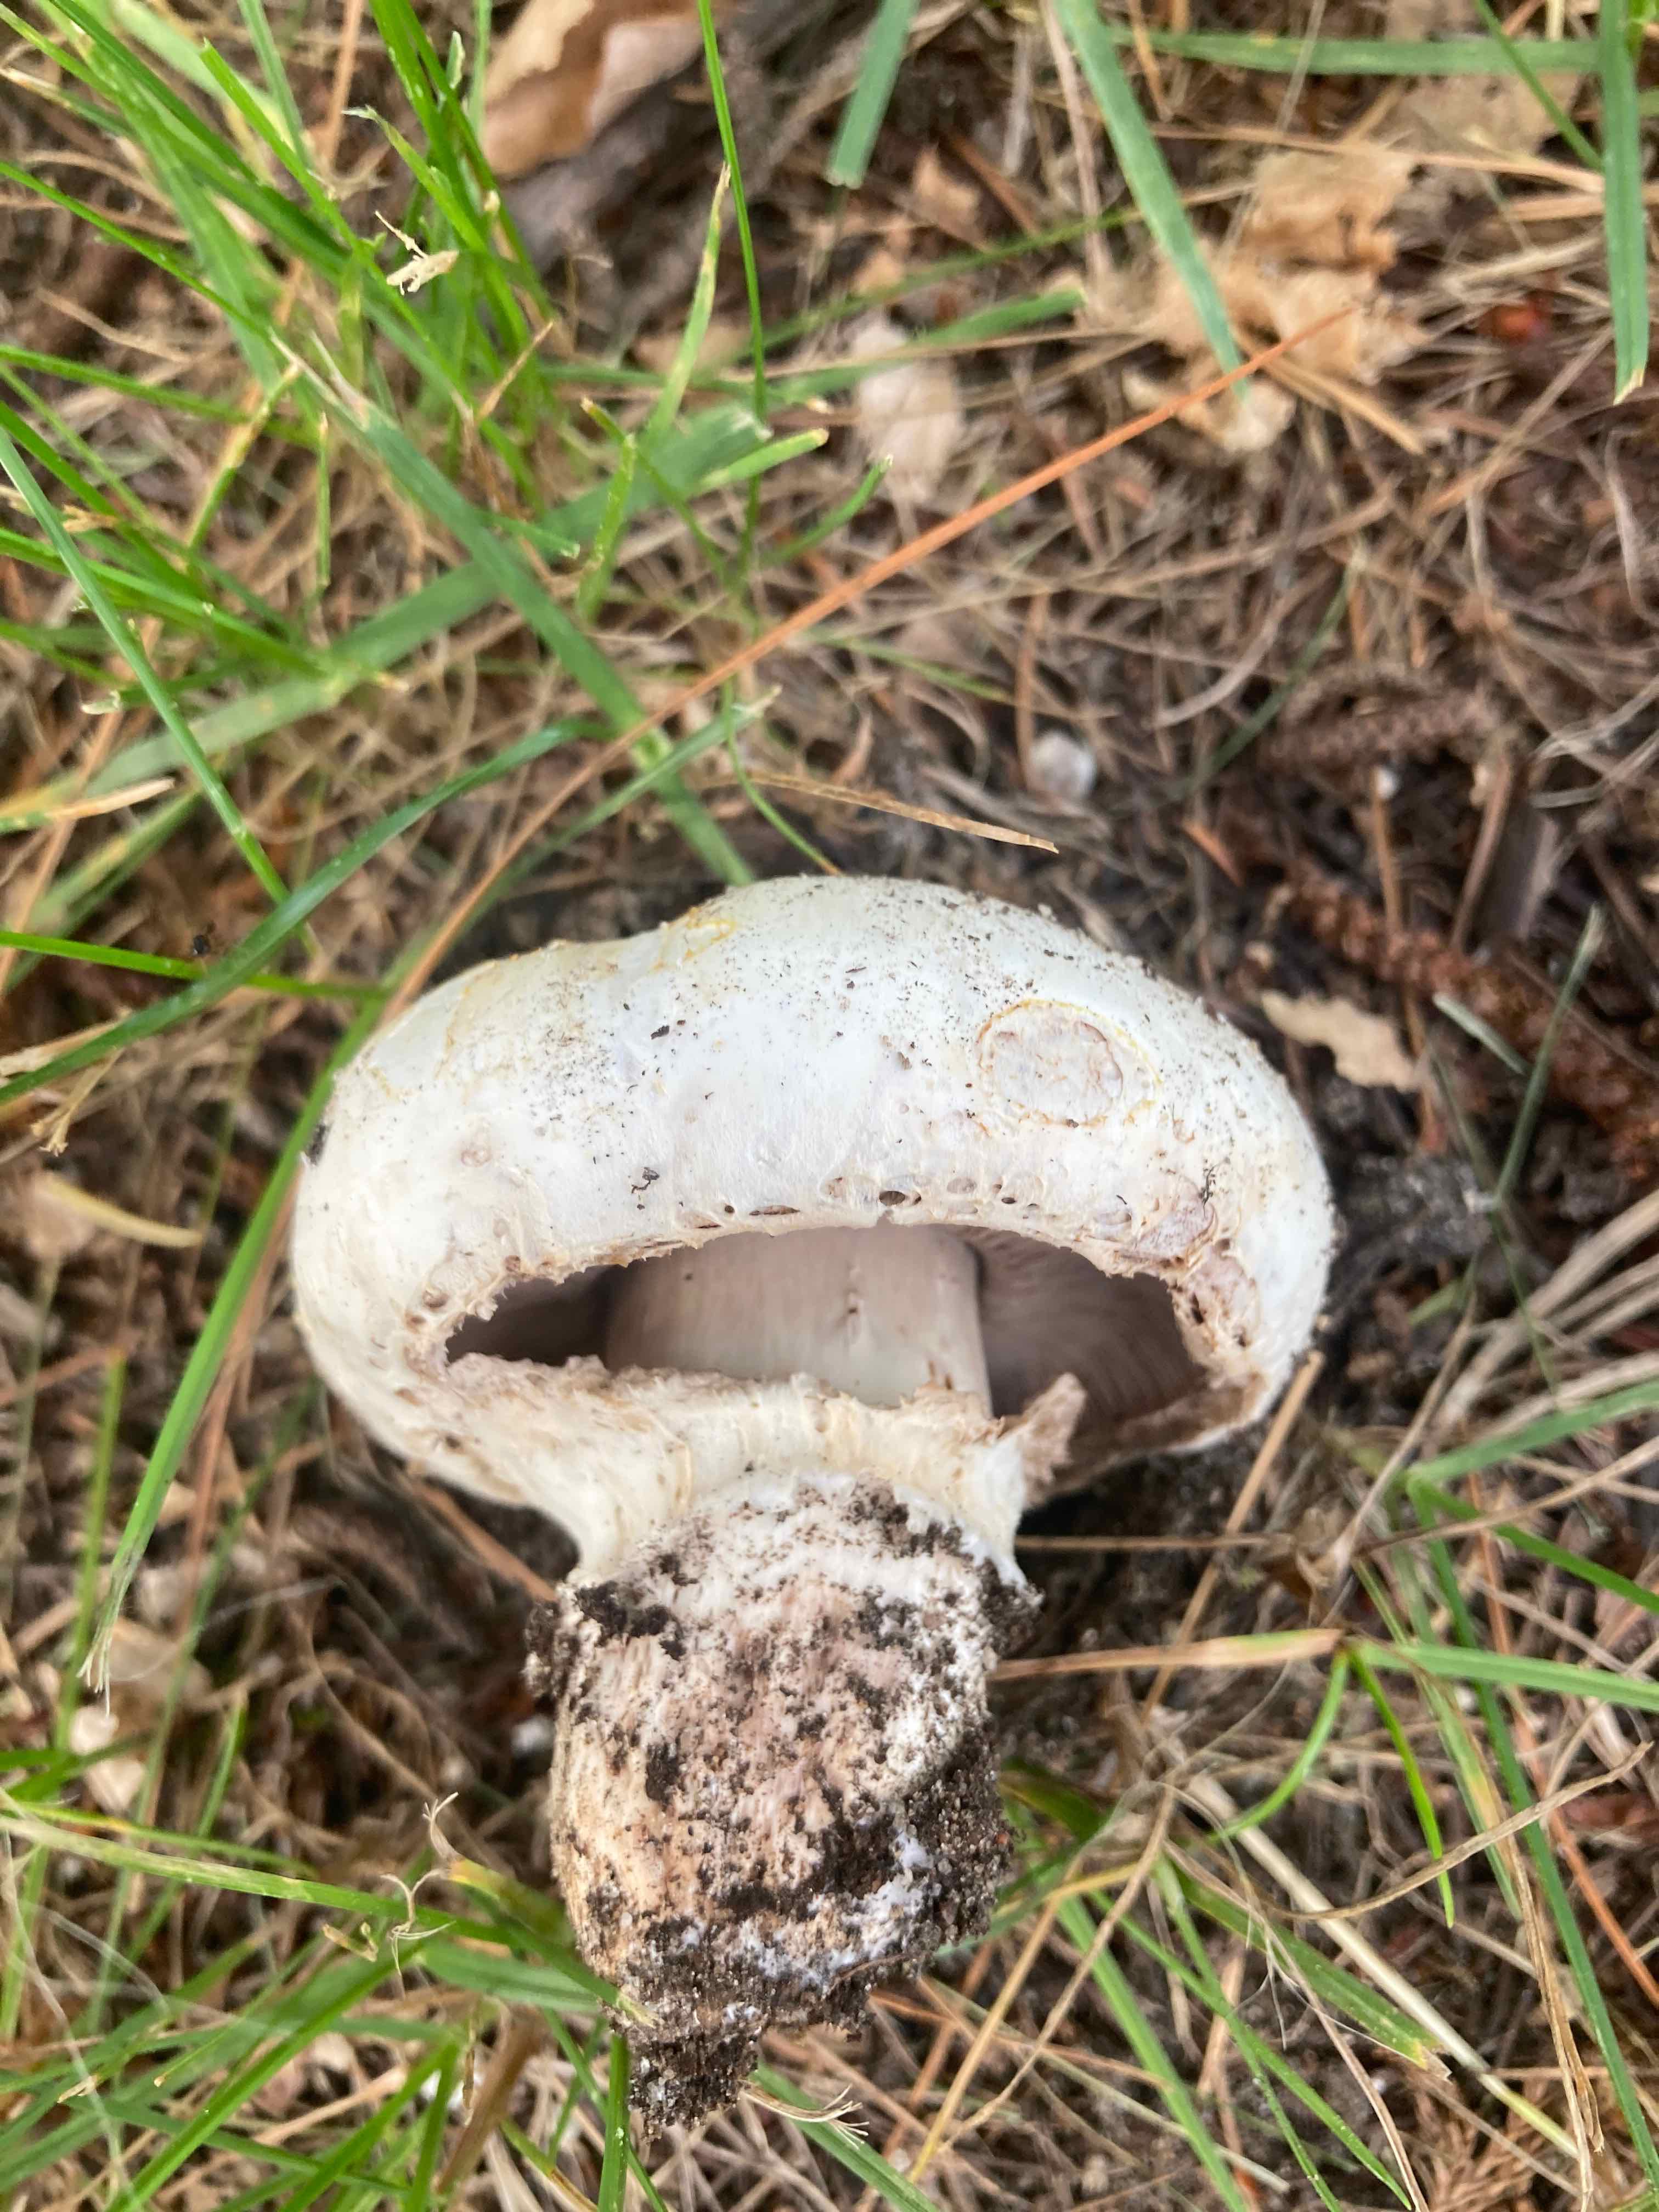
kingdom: Fungi
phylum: Basidiomycota
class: Agaricomycetes
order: Agaricales
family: Agaricaceae
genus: Agaricus
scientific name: Agaricus bitorquis
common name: vej-champignon
